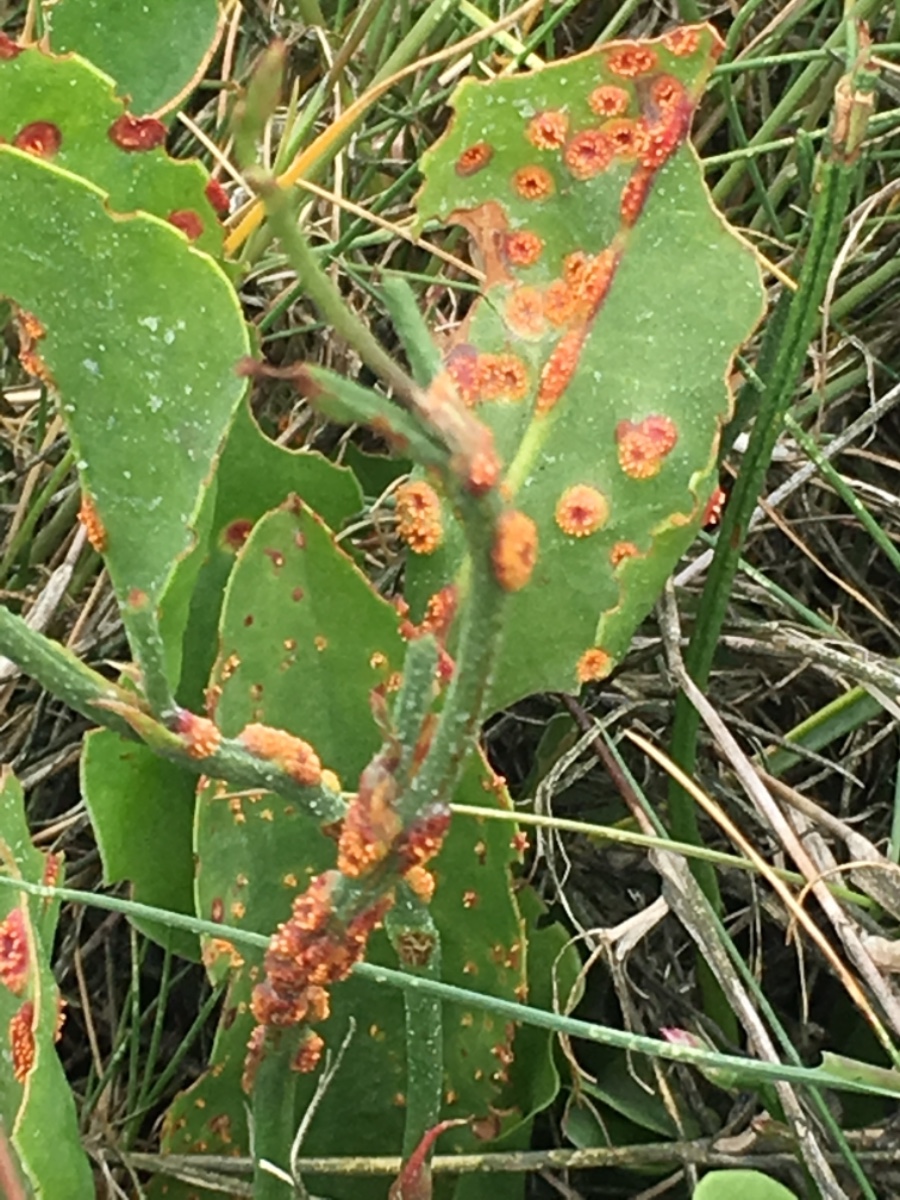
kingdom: Fungi
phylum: Basidiomycota
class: Pucciniomycetes
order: Pucciniales
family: Pucciniaceae
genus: Uromyces
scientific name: Uromyces limonii
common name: hindebæger-encellerust
